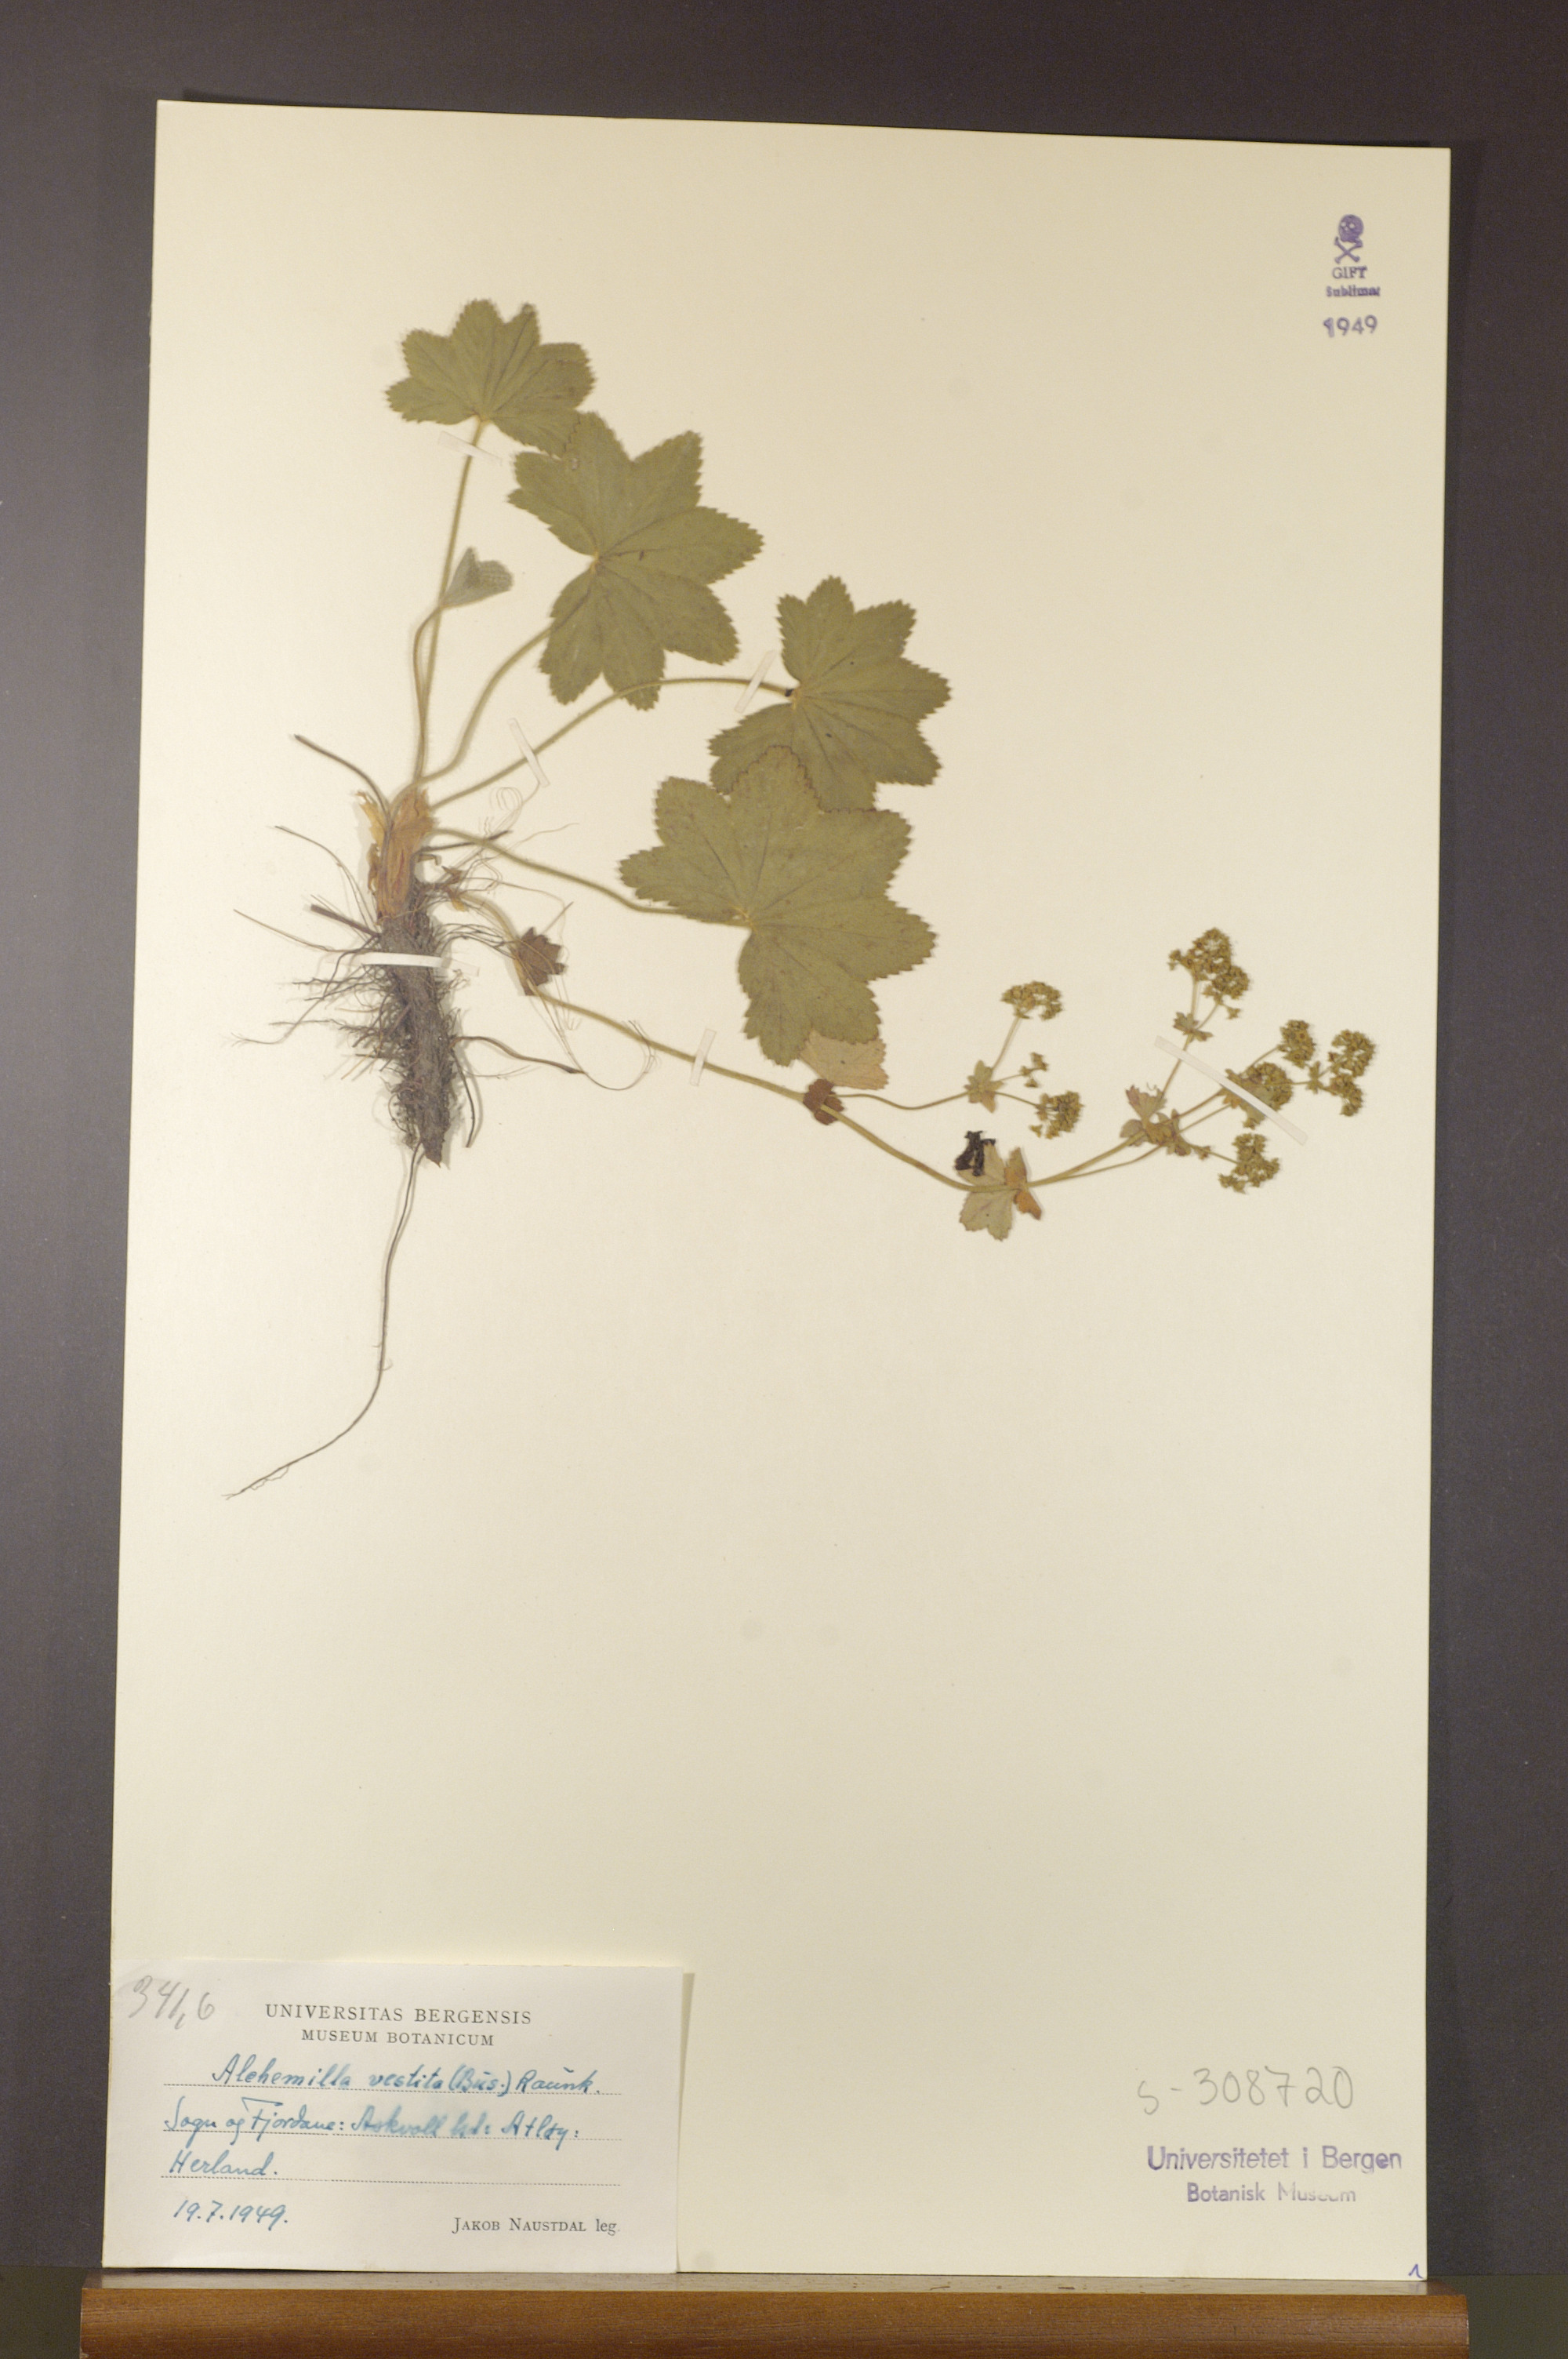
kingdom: Plantae
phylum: Tracheophyta
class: Magnoliopsida
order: Rosales
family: Rosaceae
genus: Alchemilla
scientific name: Alchemilla filicaulis
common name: Hairy lady's-mantle
